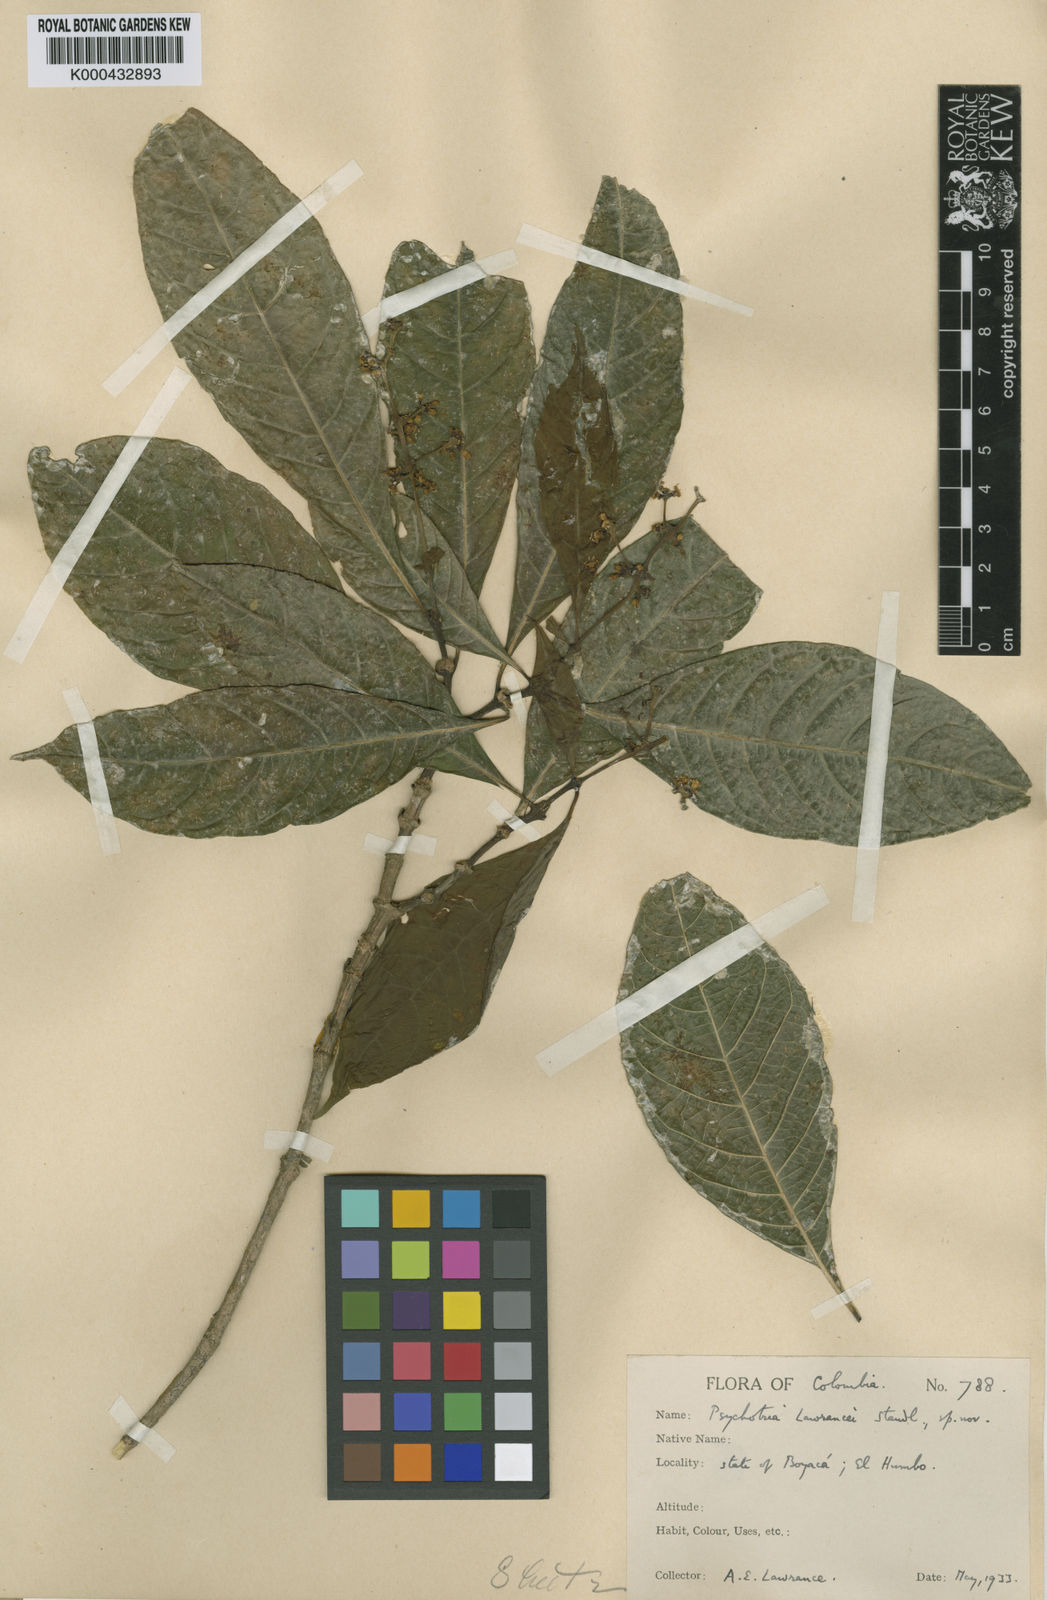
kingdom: Plantae
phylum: Tracheophyta
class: Magnoliopsida
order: Gentianales
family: Rubiaceae
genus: Eumachia
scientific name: Eumachia boliviana
